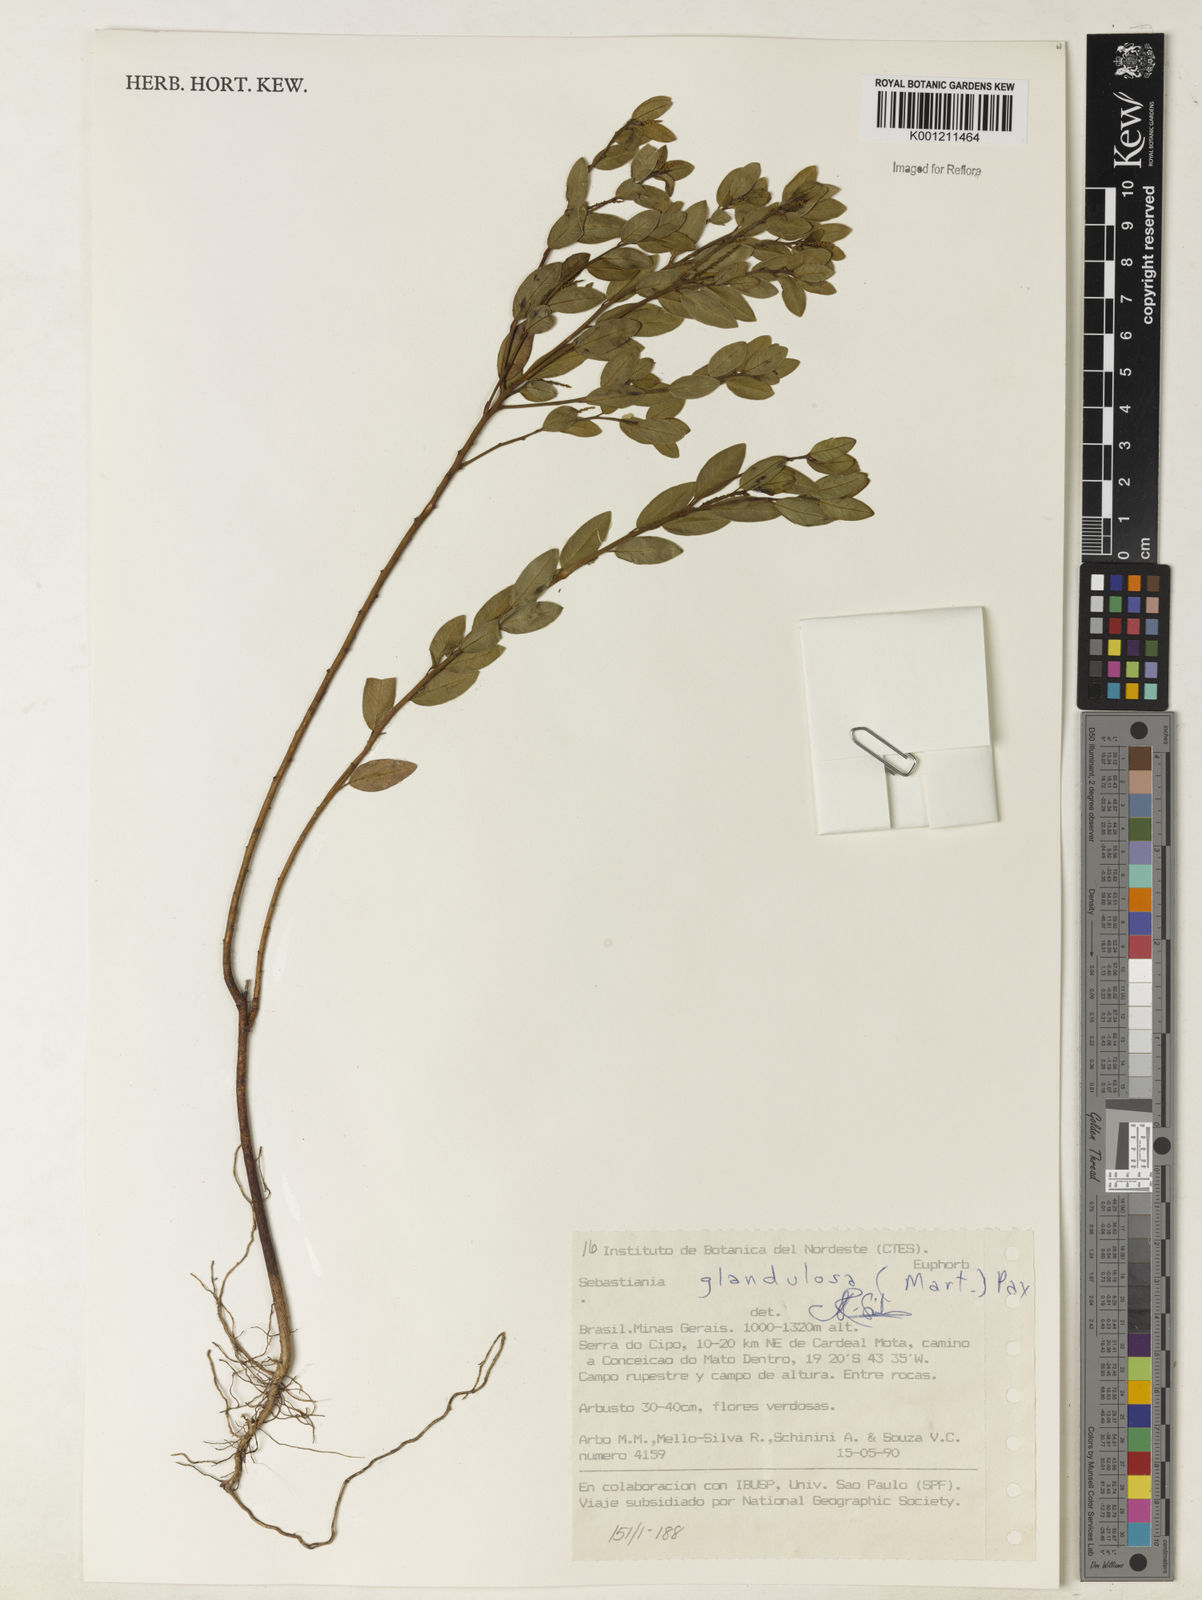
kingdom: Plantae
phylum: Tracheophyta
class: Magnoliopsida
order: Malpighiales
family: Euphorbiaceae
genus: Microstachys
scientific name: Microstachys glandulosa
